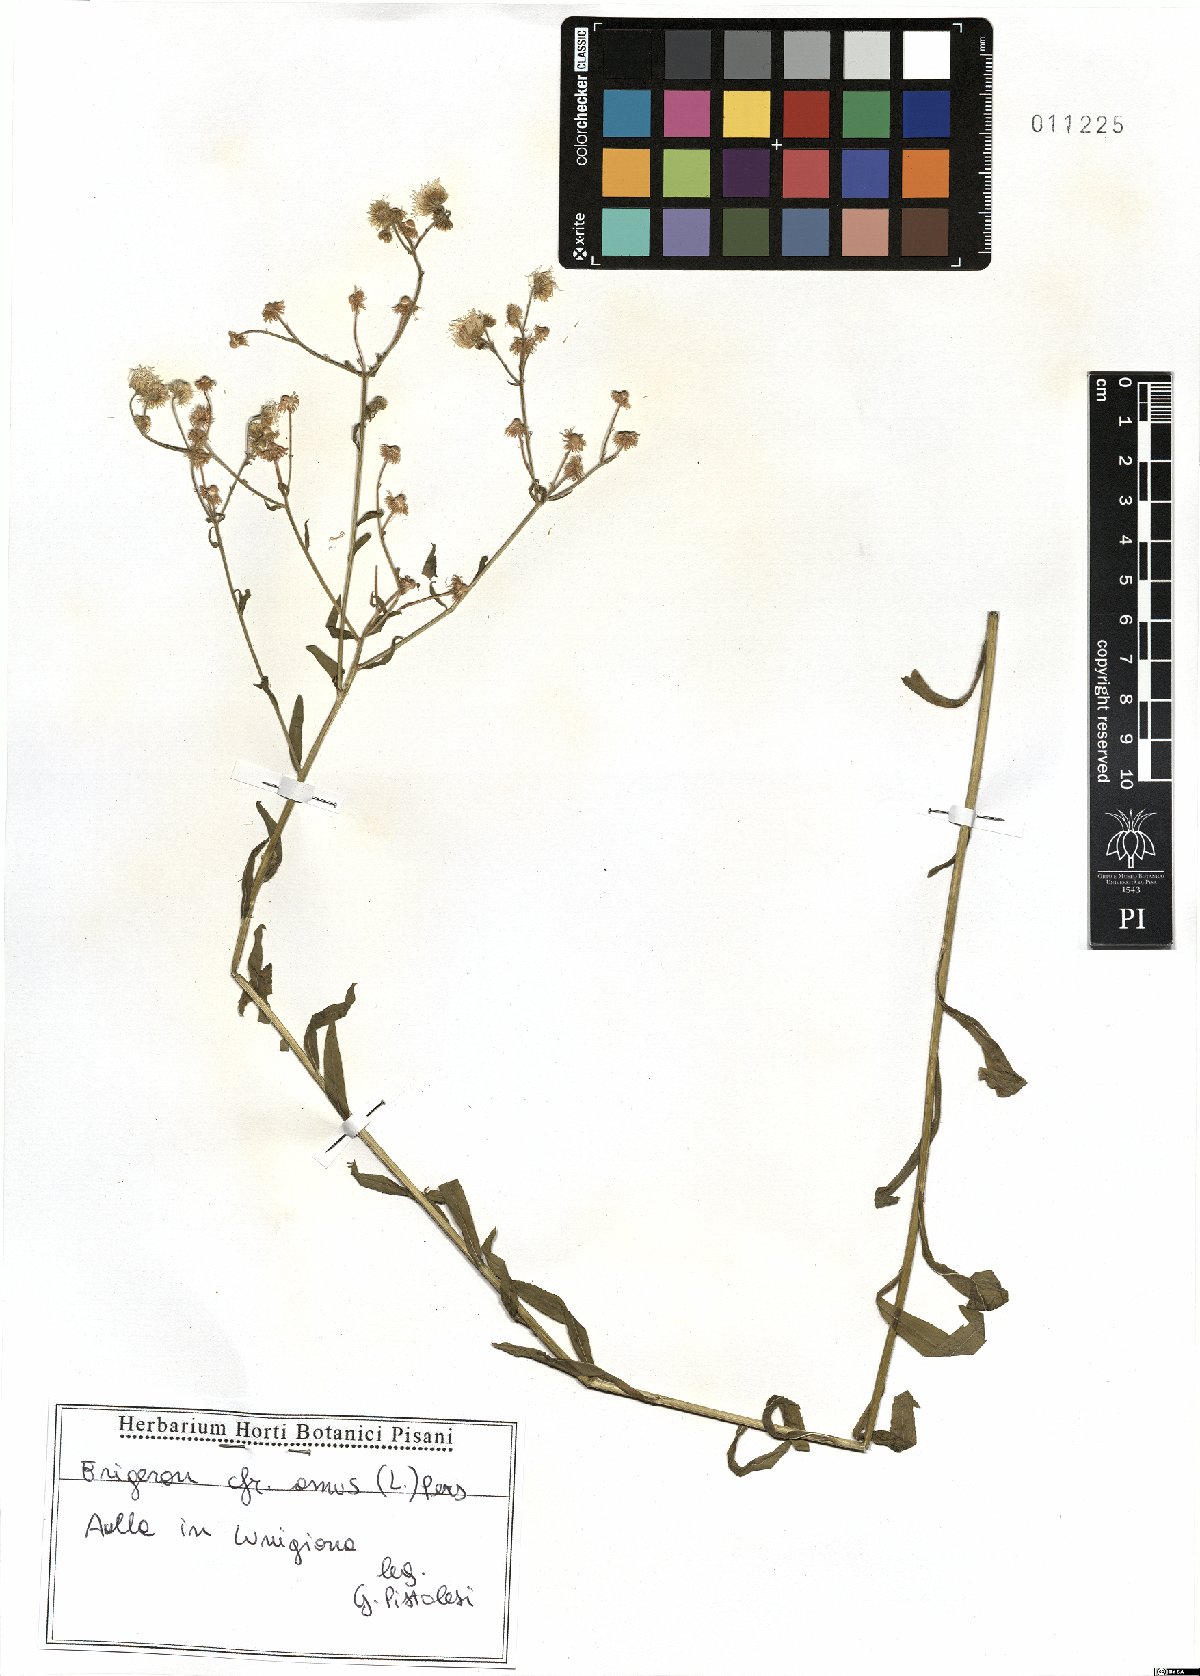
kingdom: Plantae
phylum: Tracheophyta
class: Magnoliopsida
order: Asterales
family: Asteraceae
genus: Erigeron
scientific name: Erigeron annuus
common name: Tall fleabane
